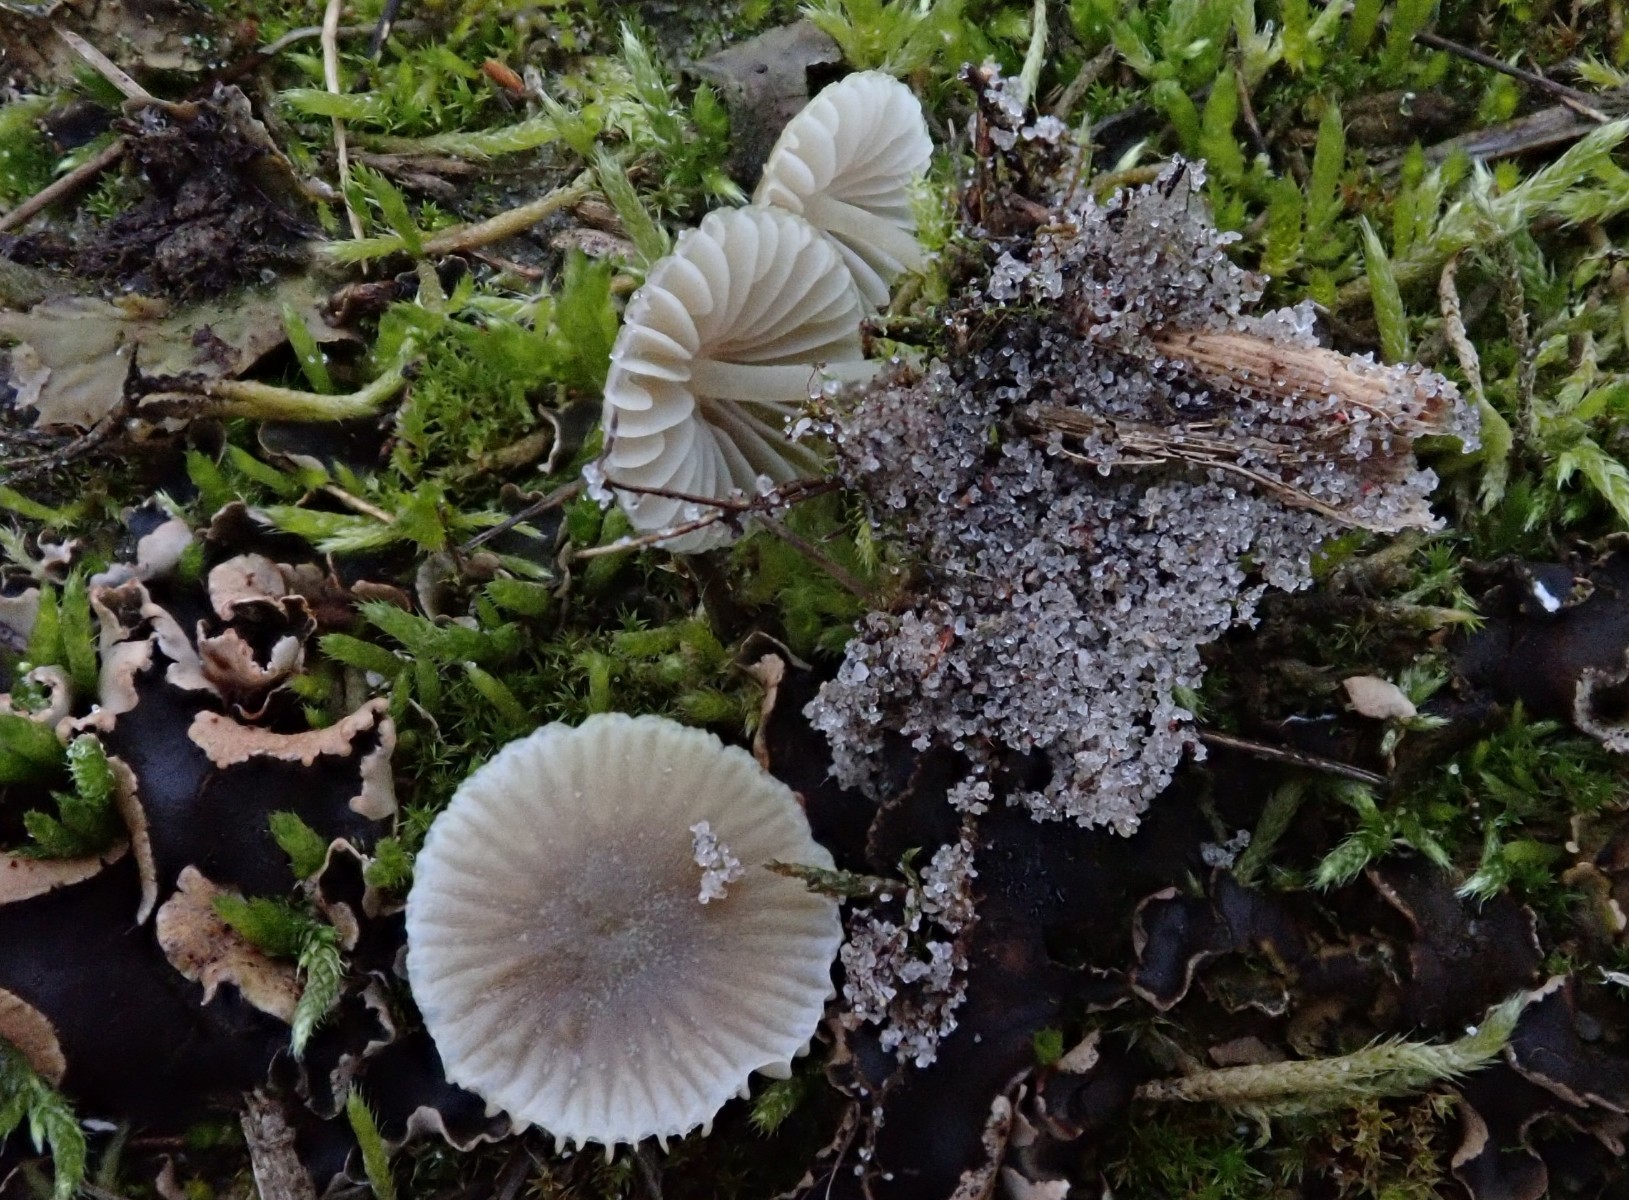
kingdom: Fungi
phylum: Basidiomycota
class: Agaricomycetes
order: Agaricales
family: Mycenaceae
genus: Mycena
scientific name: Mycena chlorantha
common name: klit-huesvamp
